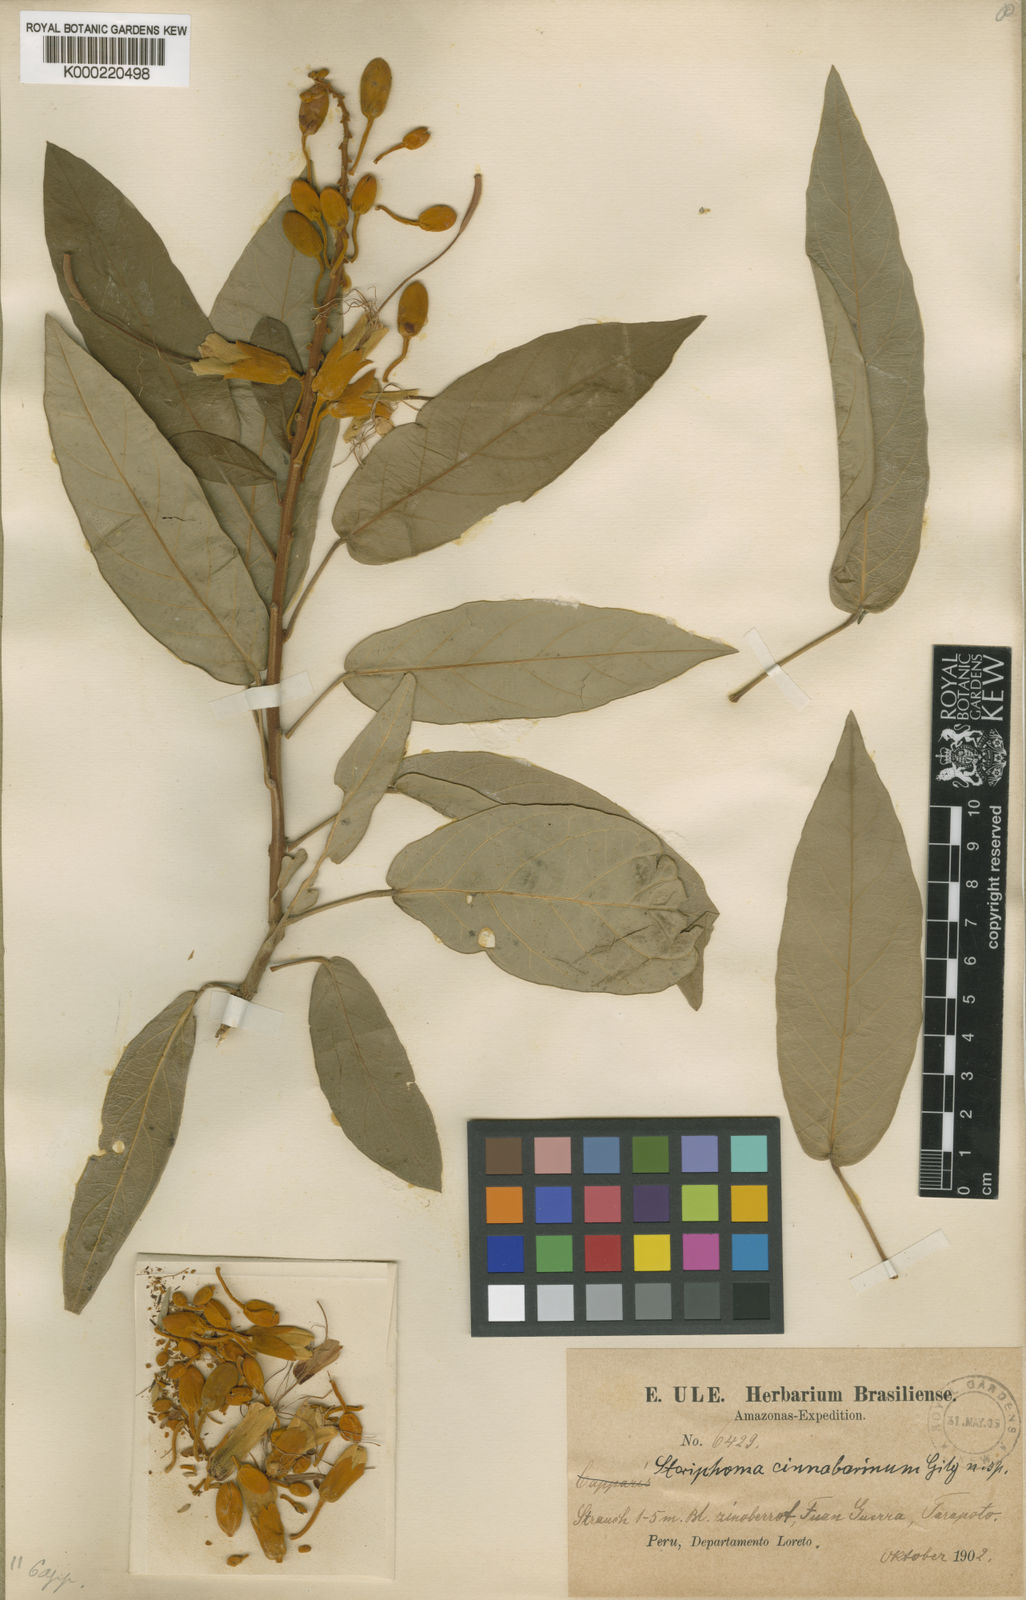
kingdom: Plantae
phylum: Tracheophyta
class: Magnoliopsida
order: Brassicales
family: Capparaceae
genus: Steriphoma
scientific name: Steriphoma peruvianum
